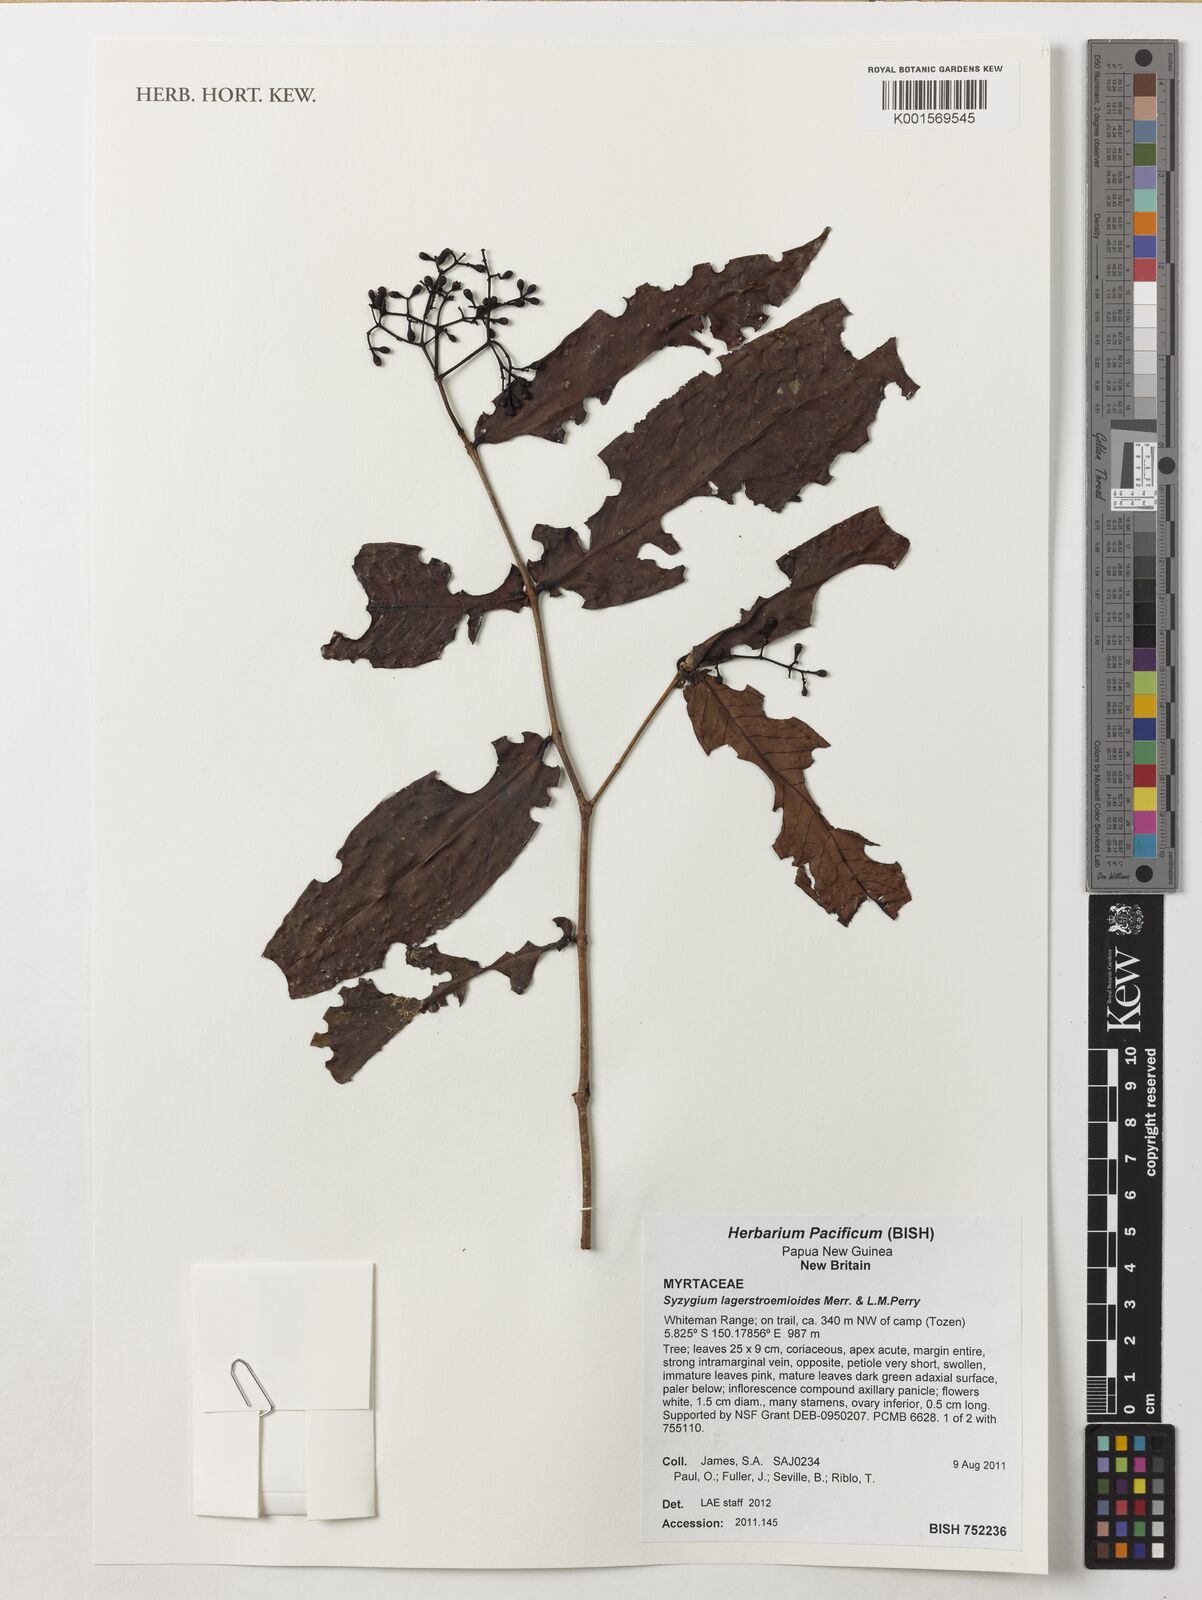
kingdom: Plantae
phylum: Tracheophyta
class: Magnoliopsida
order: Myrtales
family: Myrtaceae
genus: Syzygium
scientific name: Syzygium lagerstmemioides
